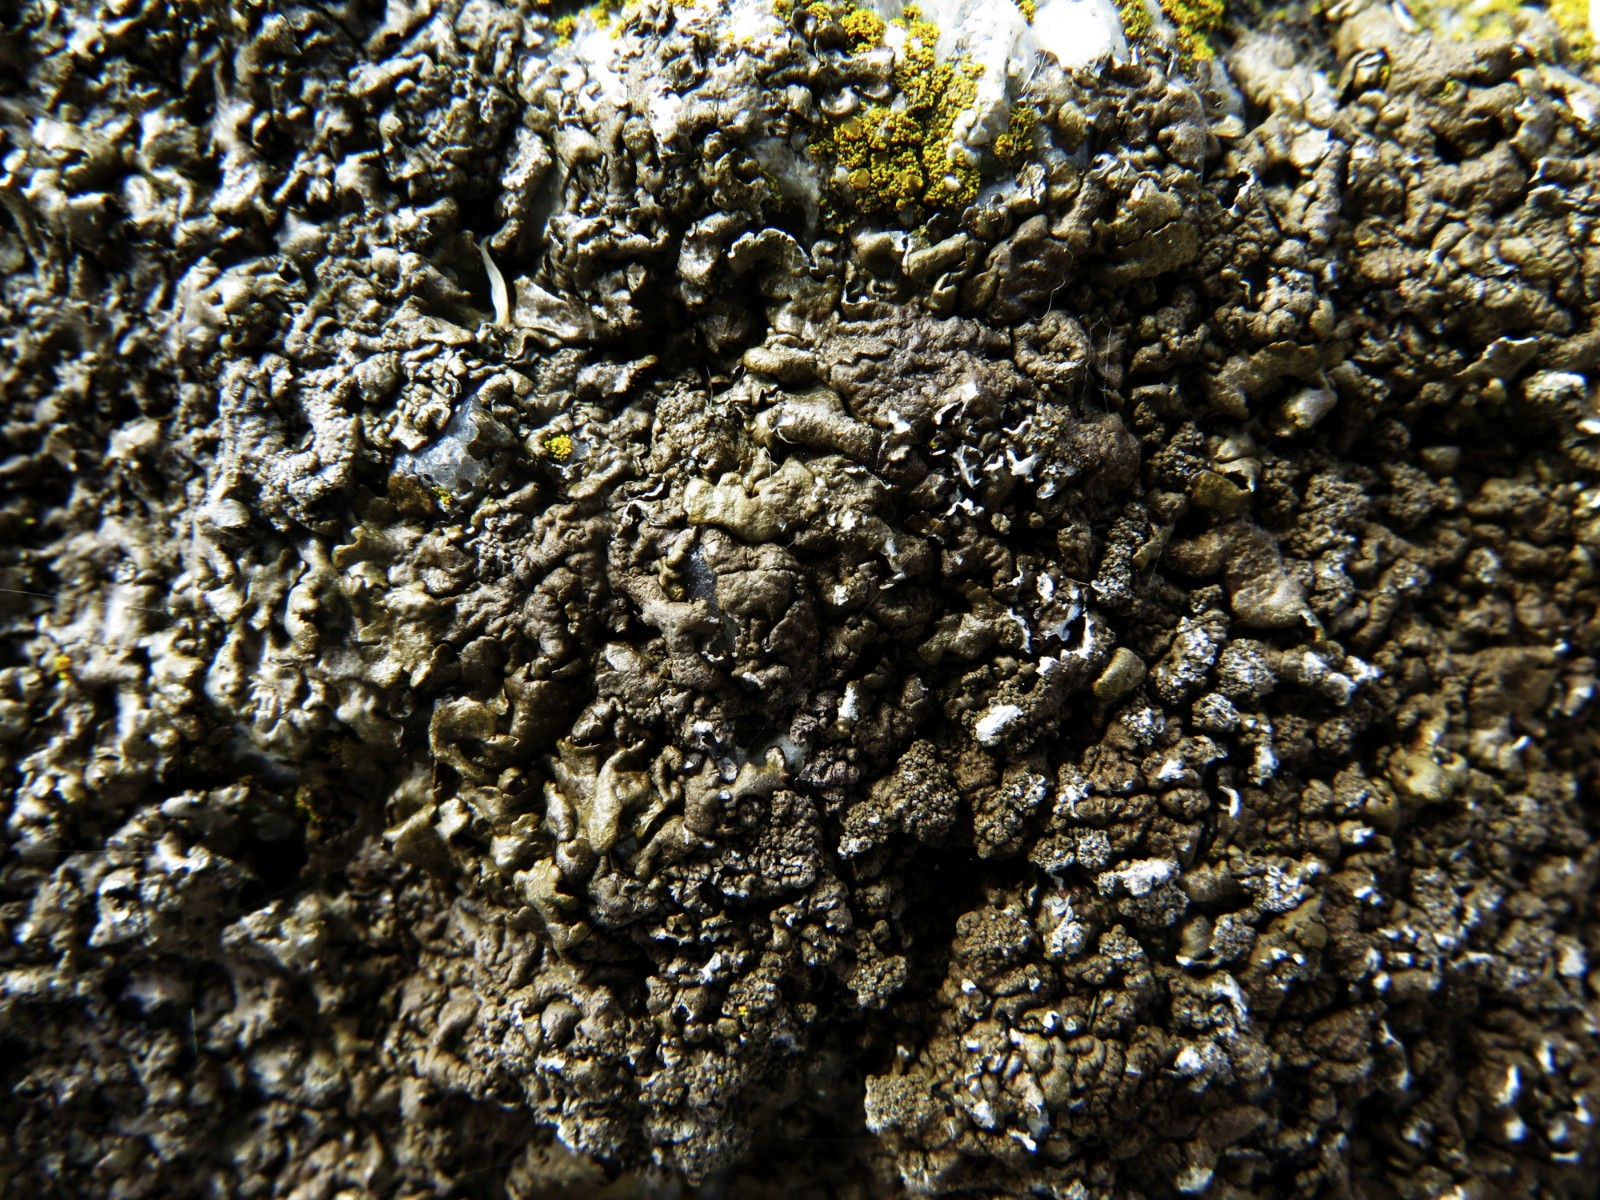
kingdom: Fungi
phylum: Ascomycota
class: Lecanoromycetes
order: Lecanorales
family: Parmeliaceae
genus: Xanthoparmelia
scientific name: Xanthoparmelia verruculifera
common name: småknoppet skållav
